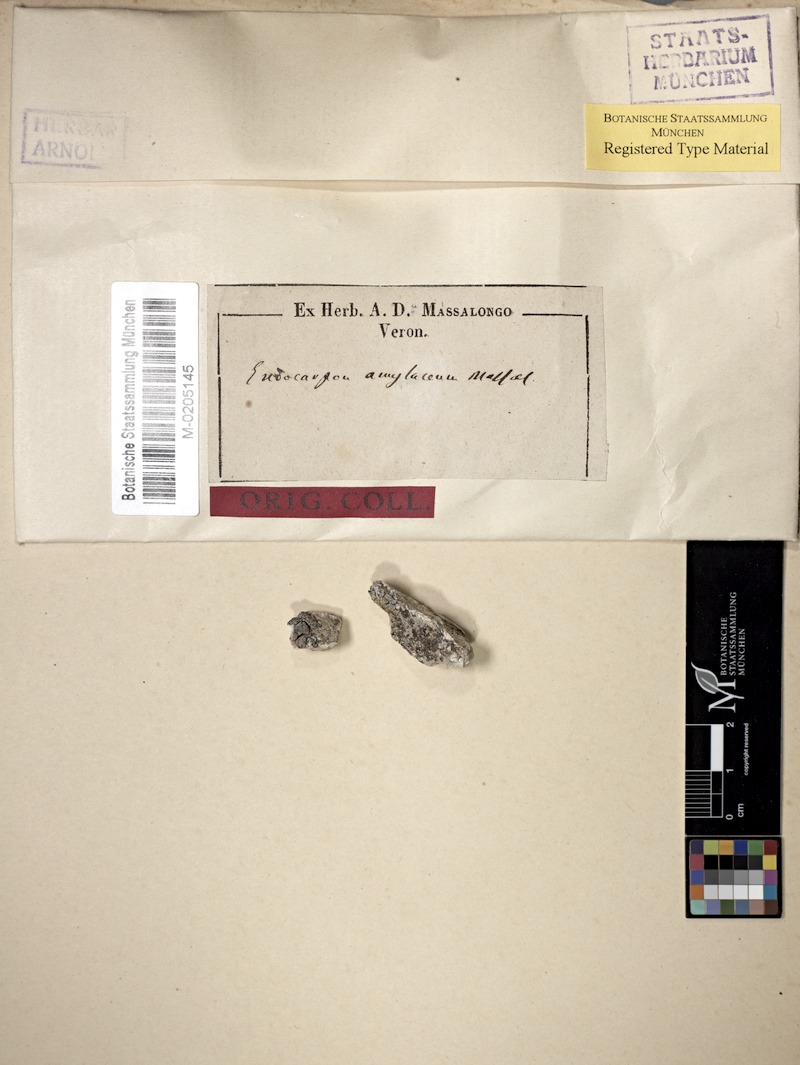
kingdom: Fungi
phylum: Ascomycota
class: Eurotiomycetes
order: Verrucariales
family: Verrucariaceae
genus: Dermatocarpon
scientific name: Dermatocarpon
